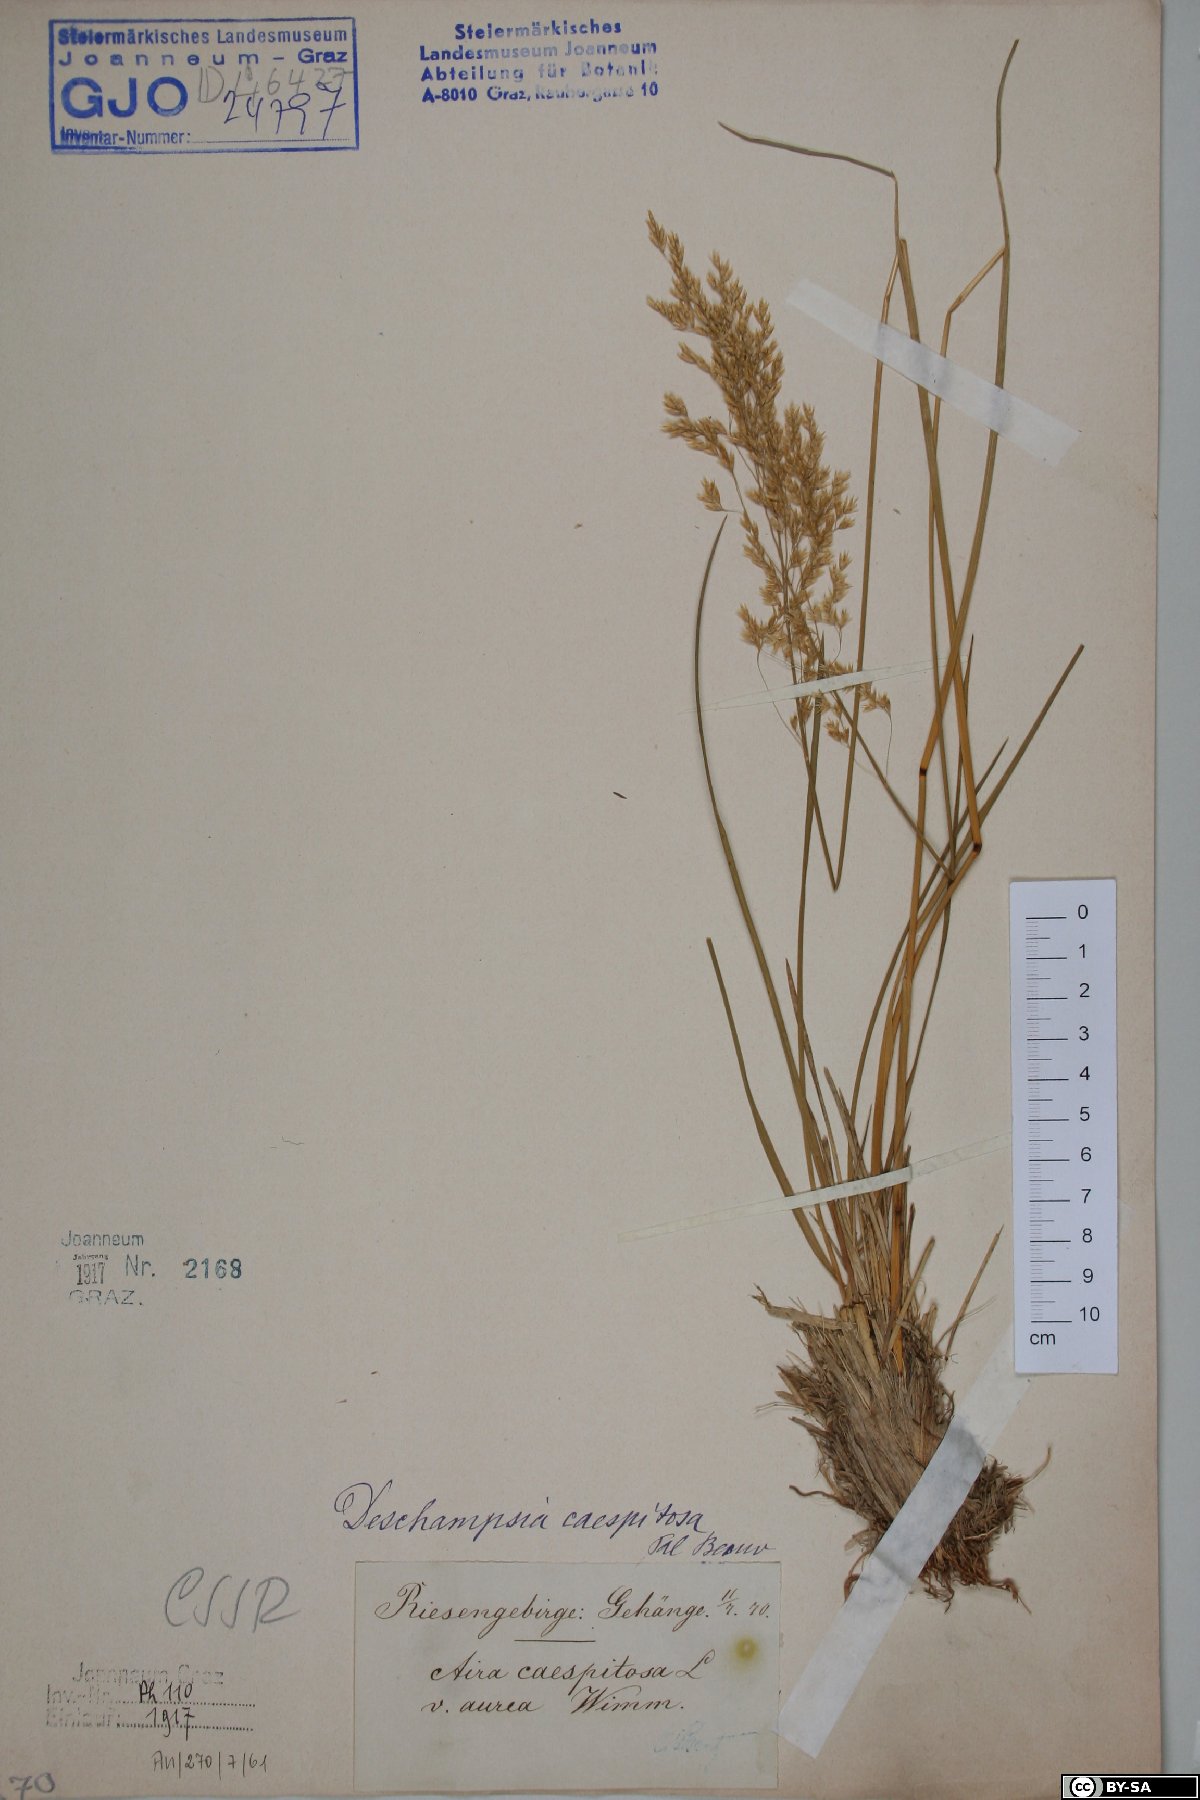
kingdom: Plantae
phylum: Tracheophyta
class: Liliopsida
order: Poales
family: Poaceae
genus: Deschampsia
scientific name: Deschampsia cespitosa
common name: Tufted hair-grass
